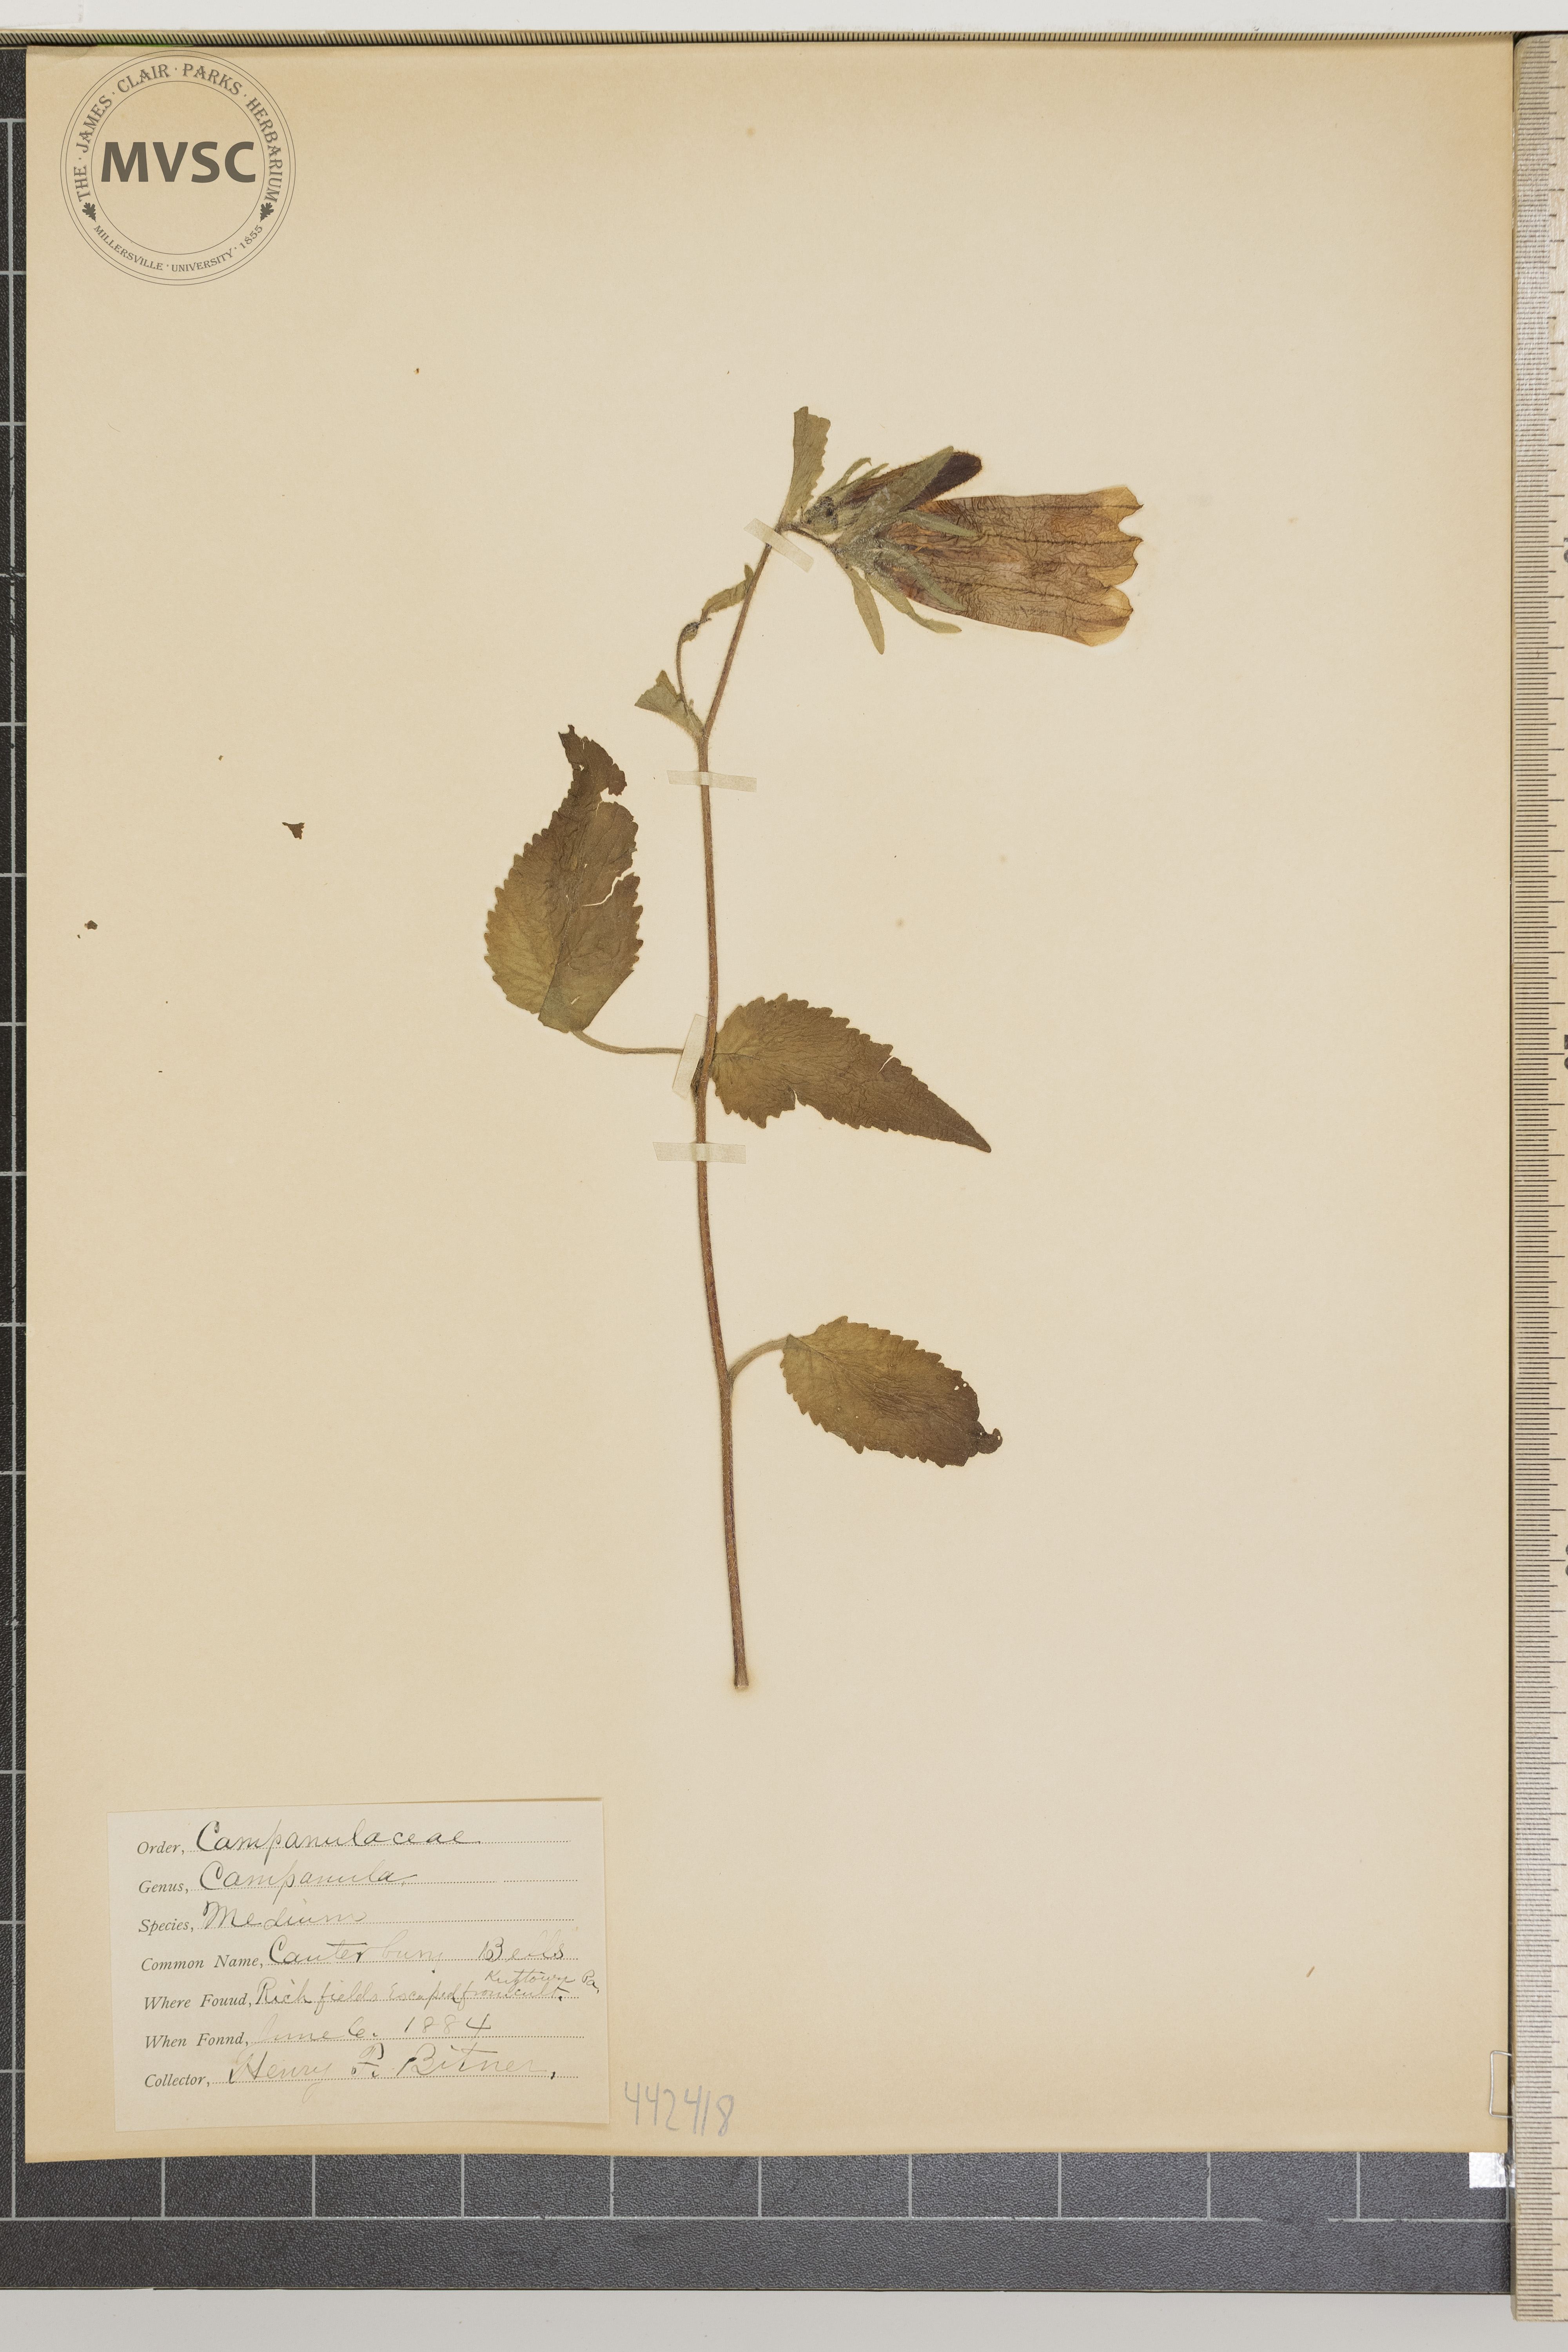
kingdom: Plantae
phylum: Tracheophyta
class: Magnoliopsida
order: Asterales
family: Campanulaceae
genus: Campanula
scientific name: Campanula medium
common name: Canterbury Bells
